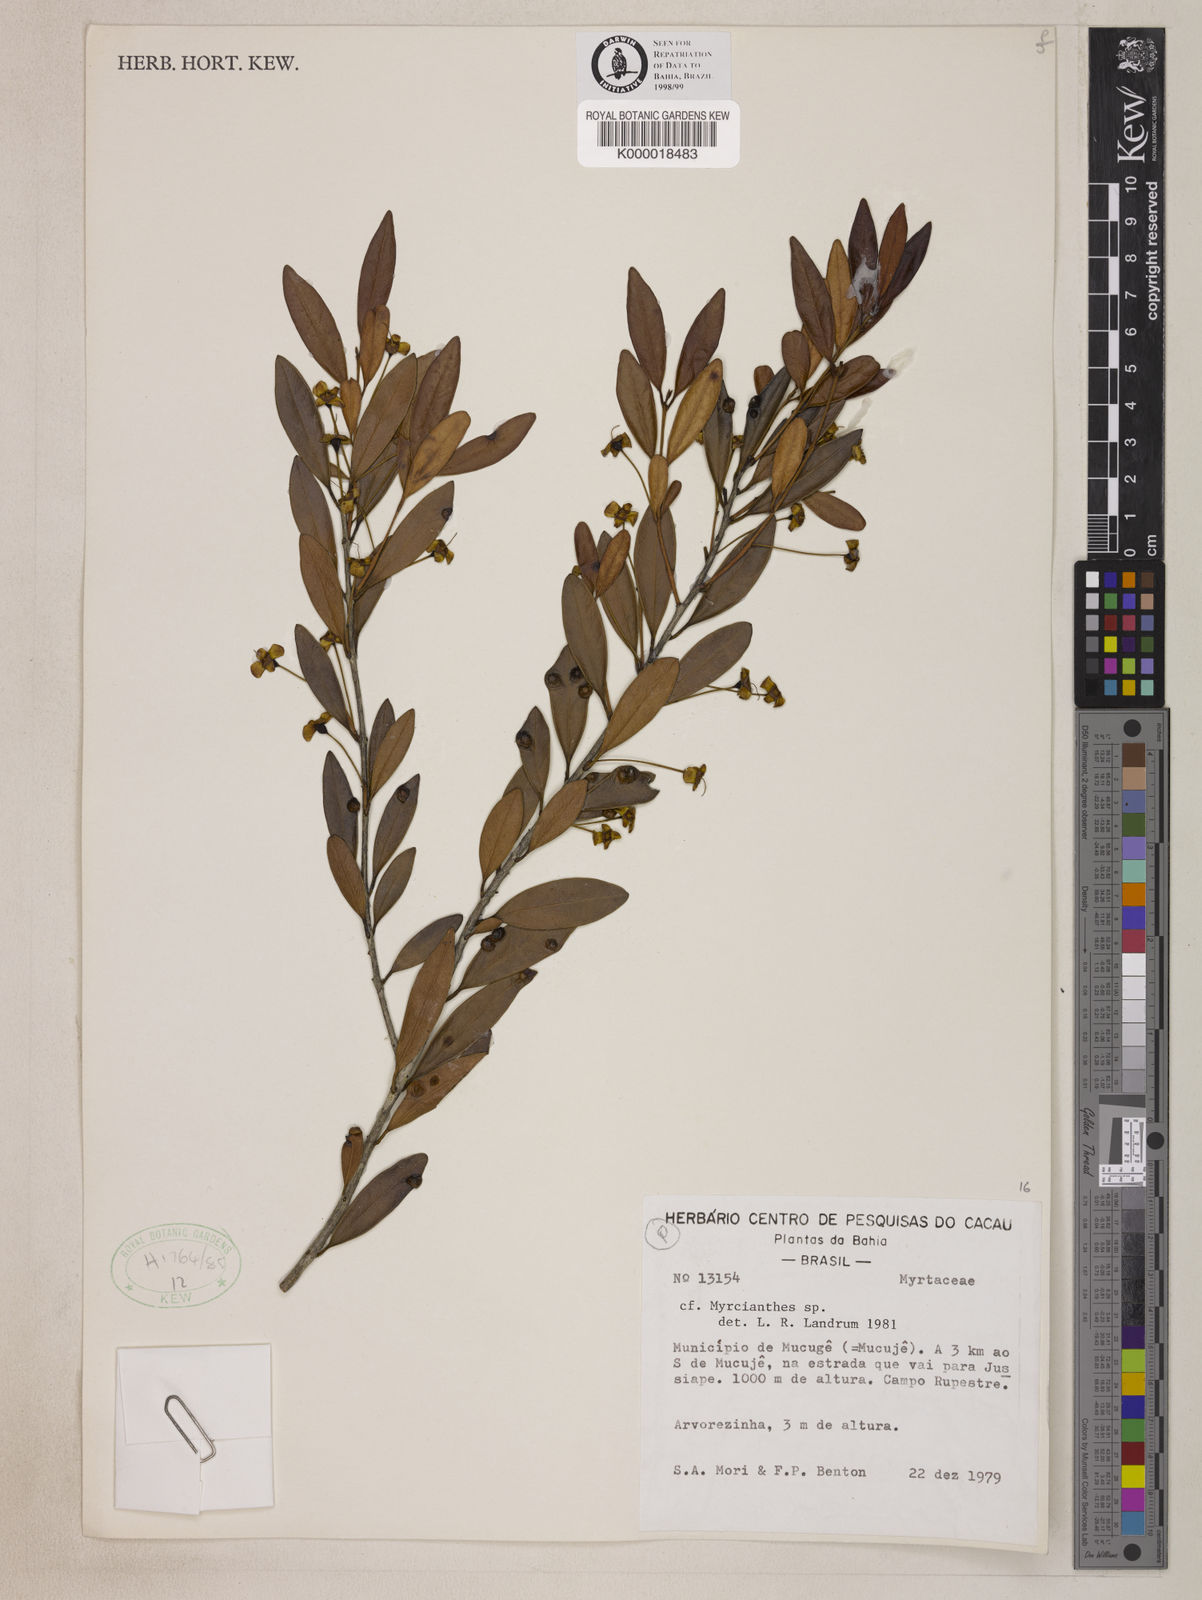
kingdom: Plantae
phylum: Tracheophyta
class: Magnoliopsida
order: Myrtales
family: Myrtaceae
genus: Myrcianthes
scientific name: Myrcianthes
